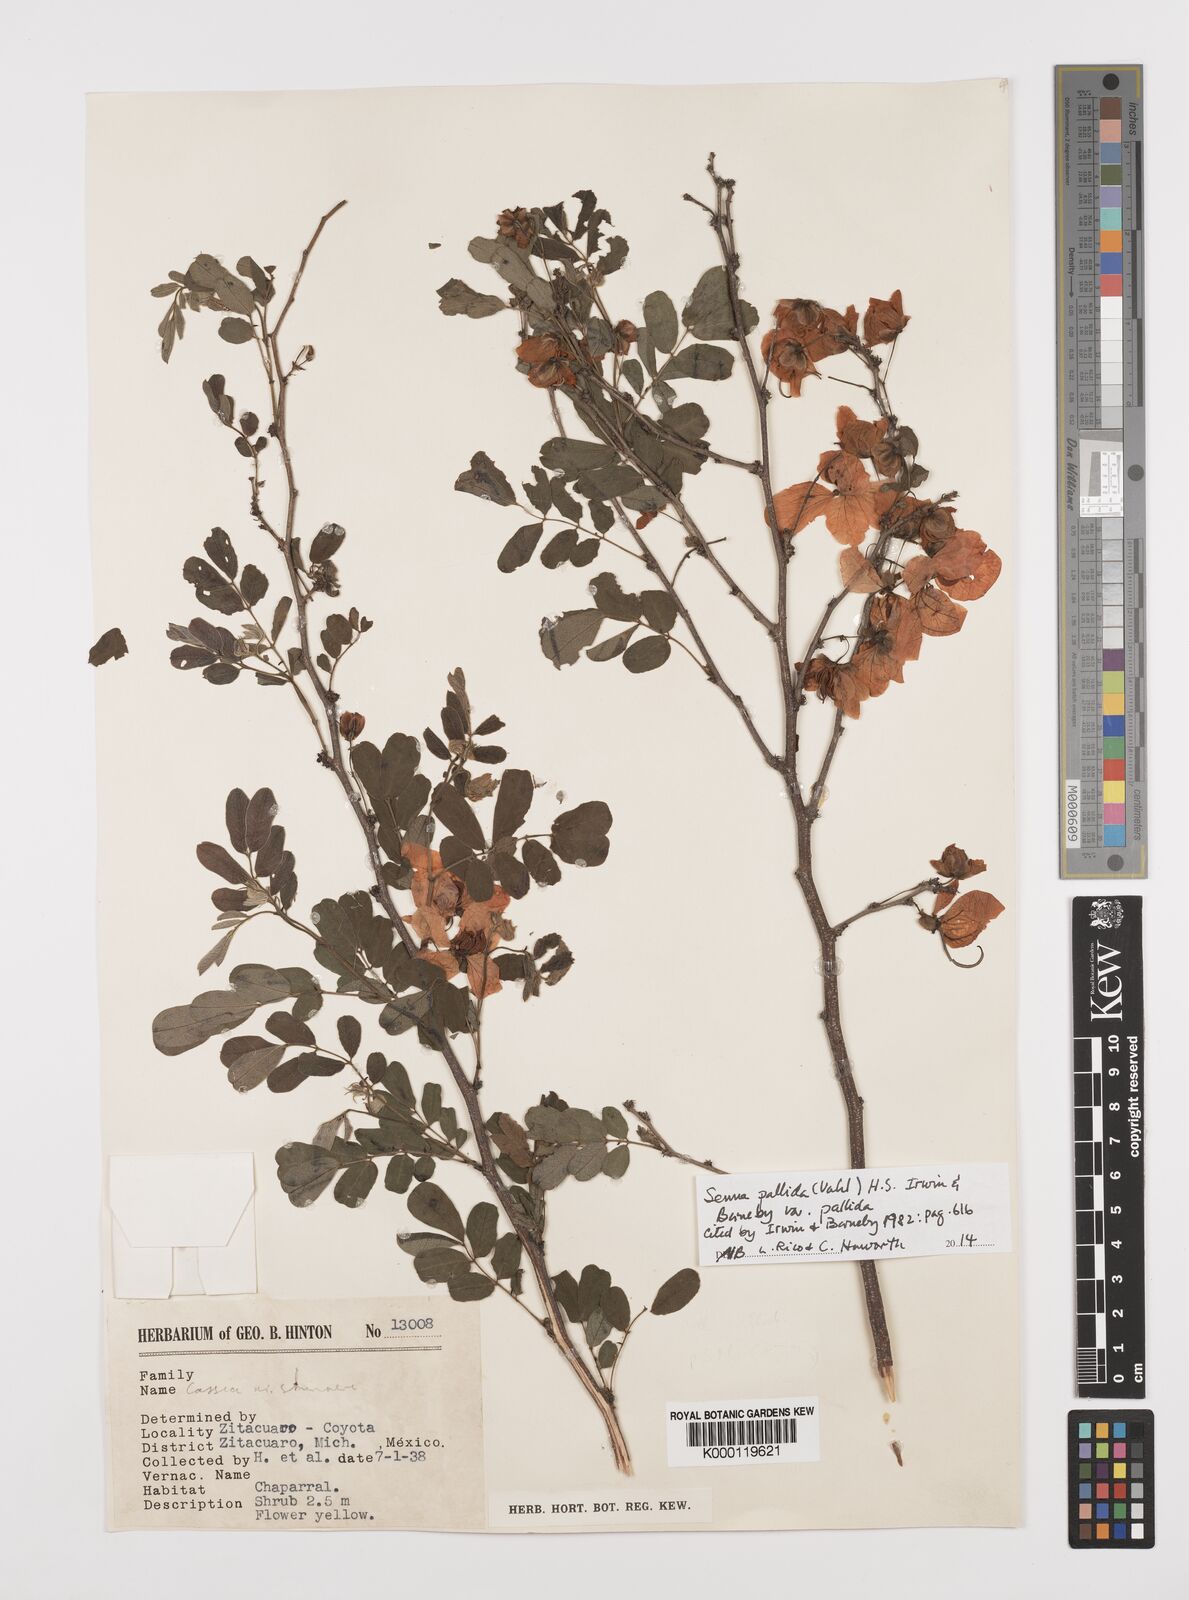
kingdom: Plantae
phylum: Tracheophyta
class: Magnoliopsida
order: Fabales
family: Fabaceae
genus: Senna
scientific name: Senna pallida
